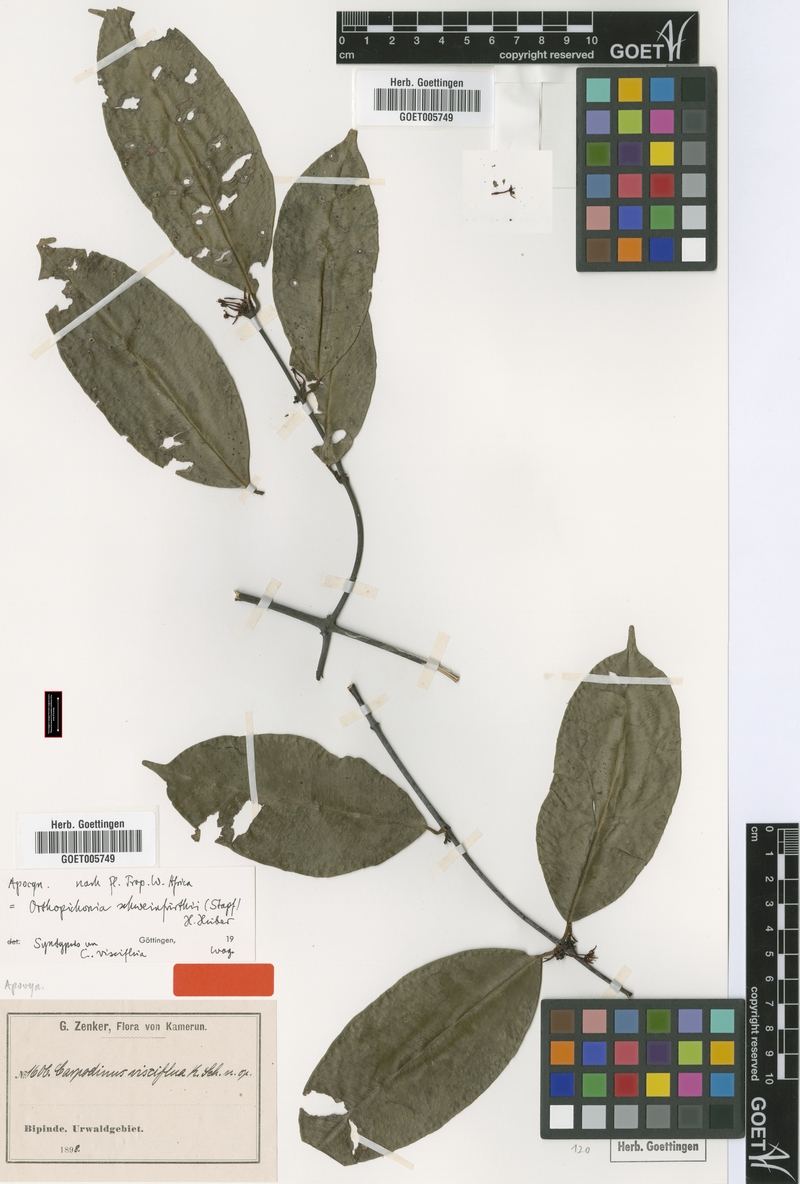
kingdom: Plantae
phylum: Tracheophyta
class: Magnoliopsida
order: Gentianales
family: Apocynaceae
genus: Orthopichonia
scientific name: Orthopichonia schweinfurthii
